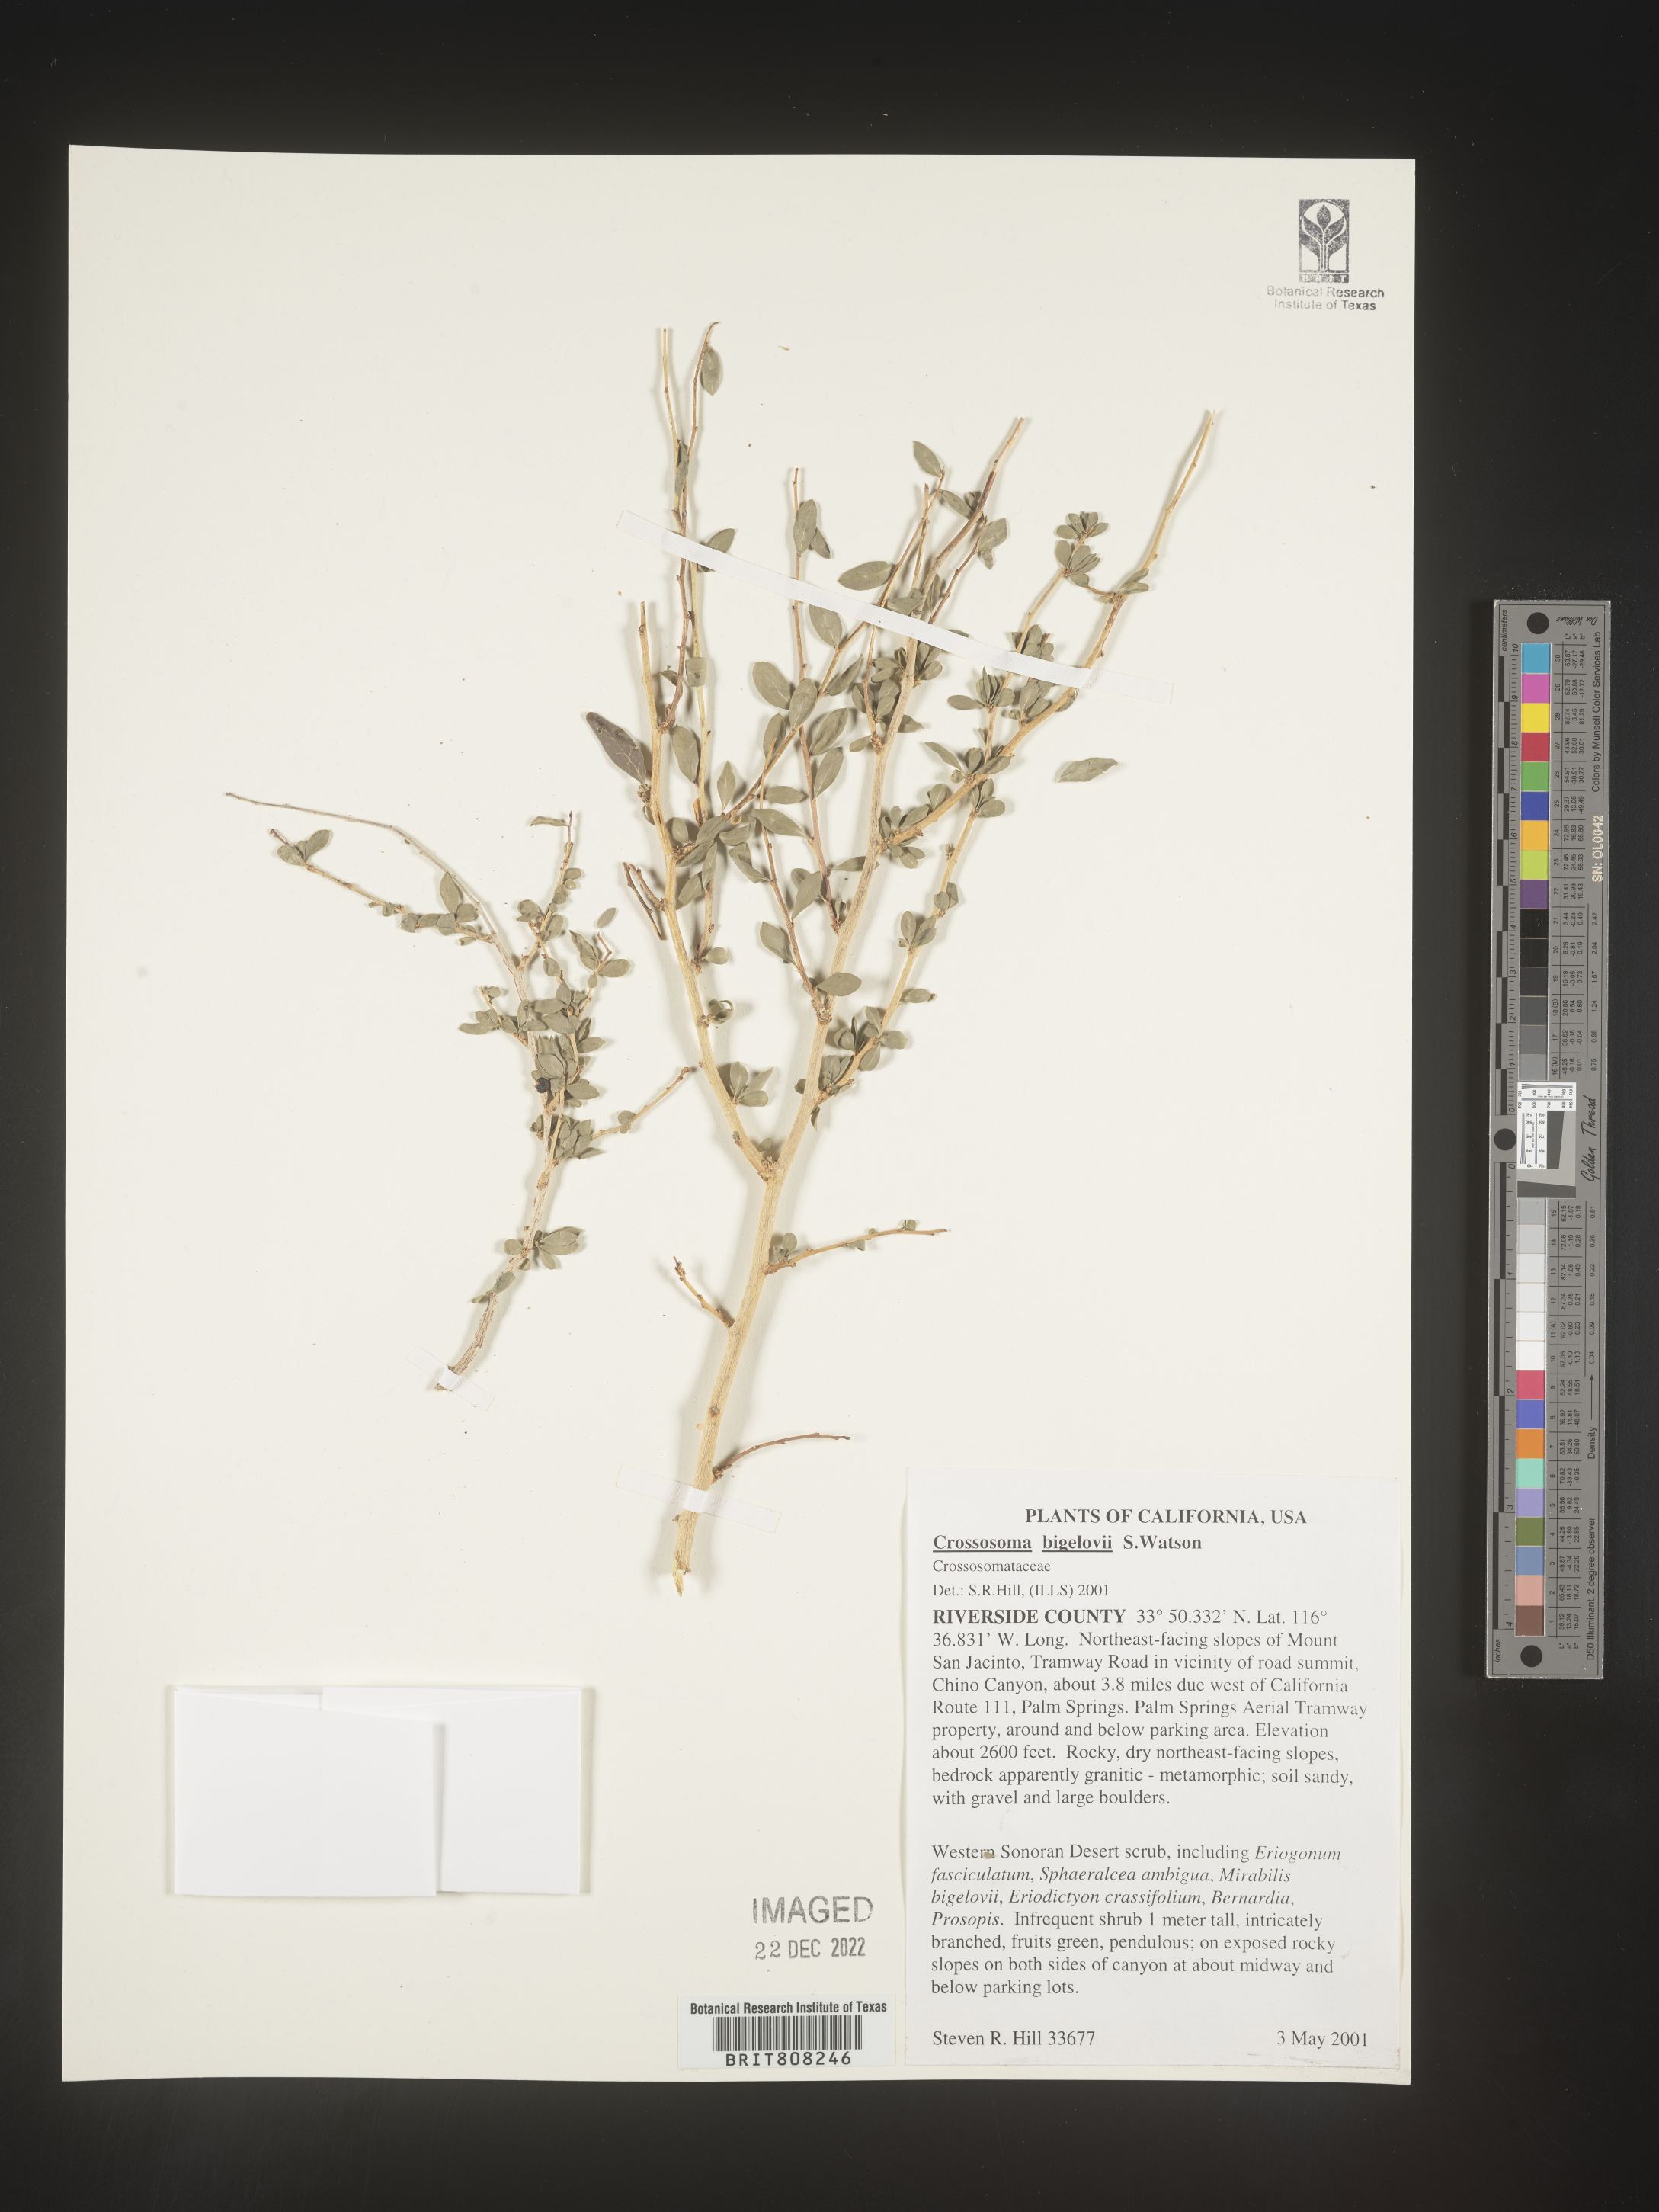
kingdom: Plantae
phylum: Tracheophyta
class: Magnoliopsida
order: Crossosomatales
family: Crossosomataceae
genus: Crossosoma
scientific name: Crossosoma bigelovii
